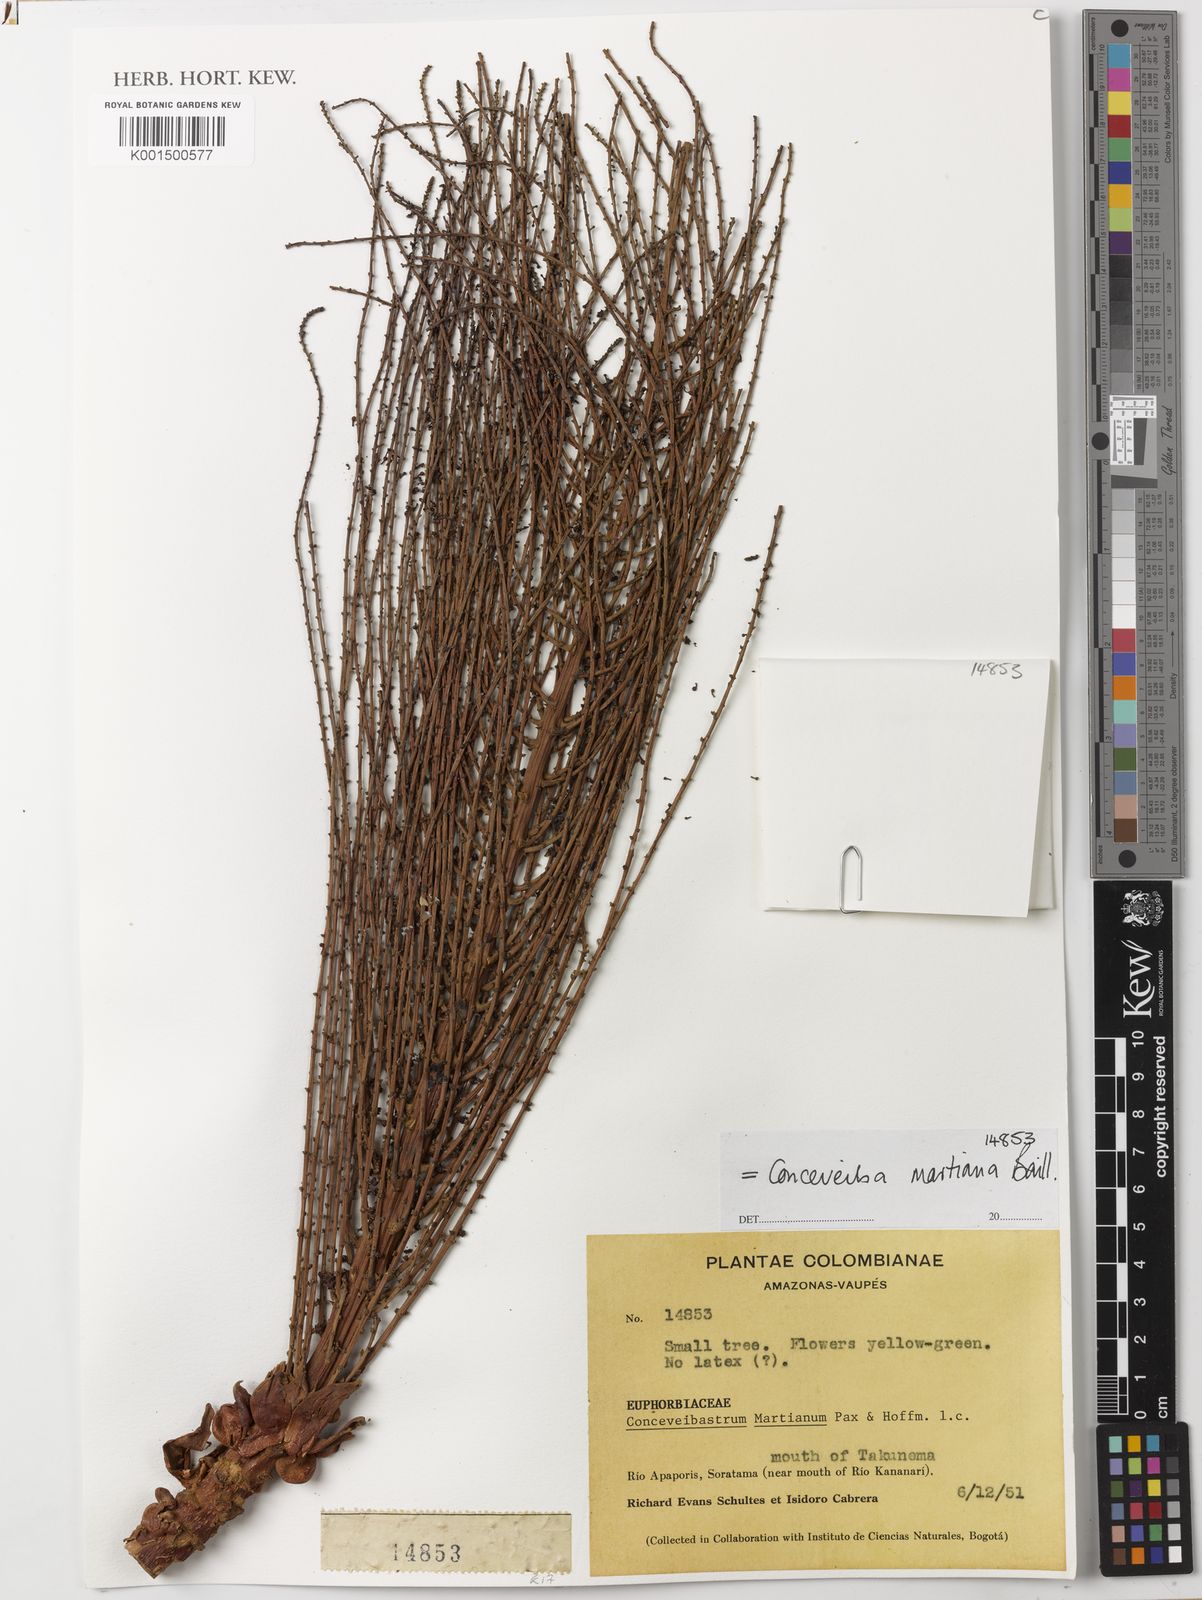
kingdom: Plantae
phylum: Tracheophyta
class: Magnoliopsida
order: Malpighiales
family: Euphorbiaceae
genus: Conceveiba
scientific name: Conceveiba martiana
